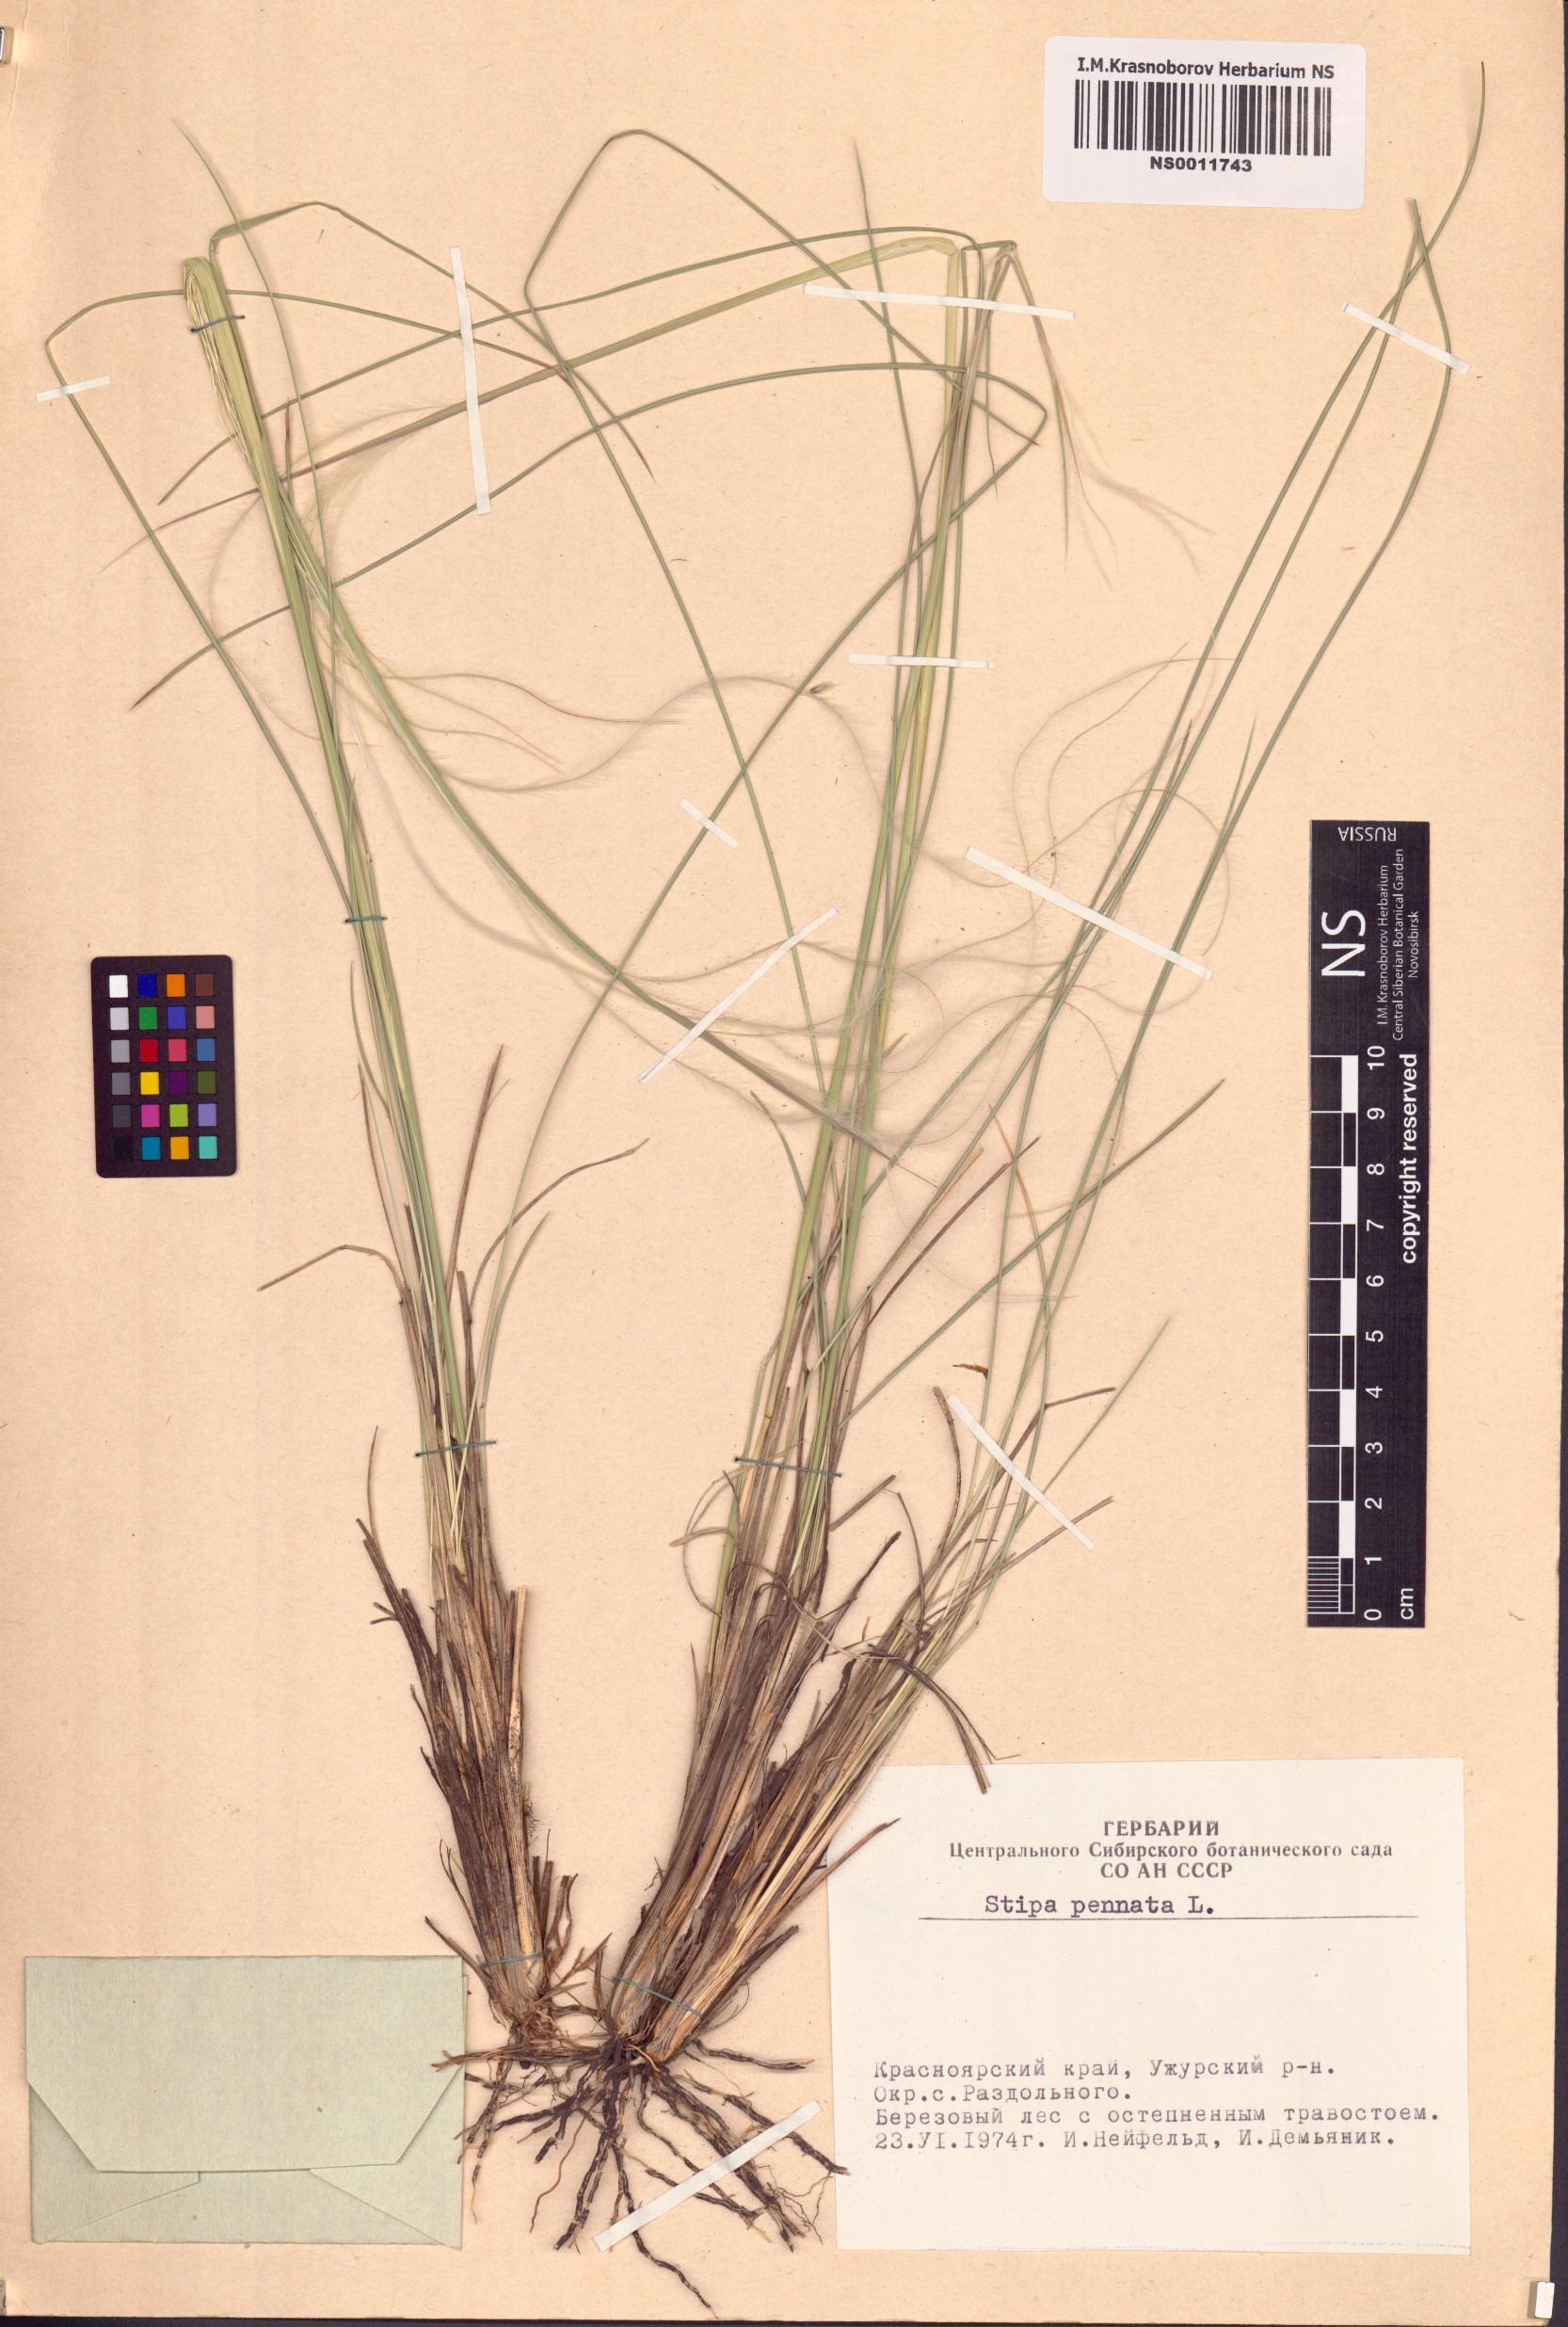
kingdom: Plantae
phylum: Tracheophyta
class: Liliopsida
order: Poales
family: Poaceae
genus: Stipa
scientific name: Stipa pennata
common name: European feather grass
